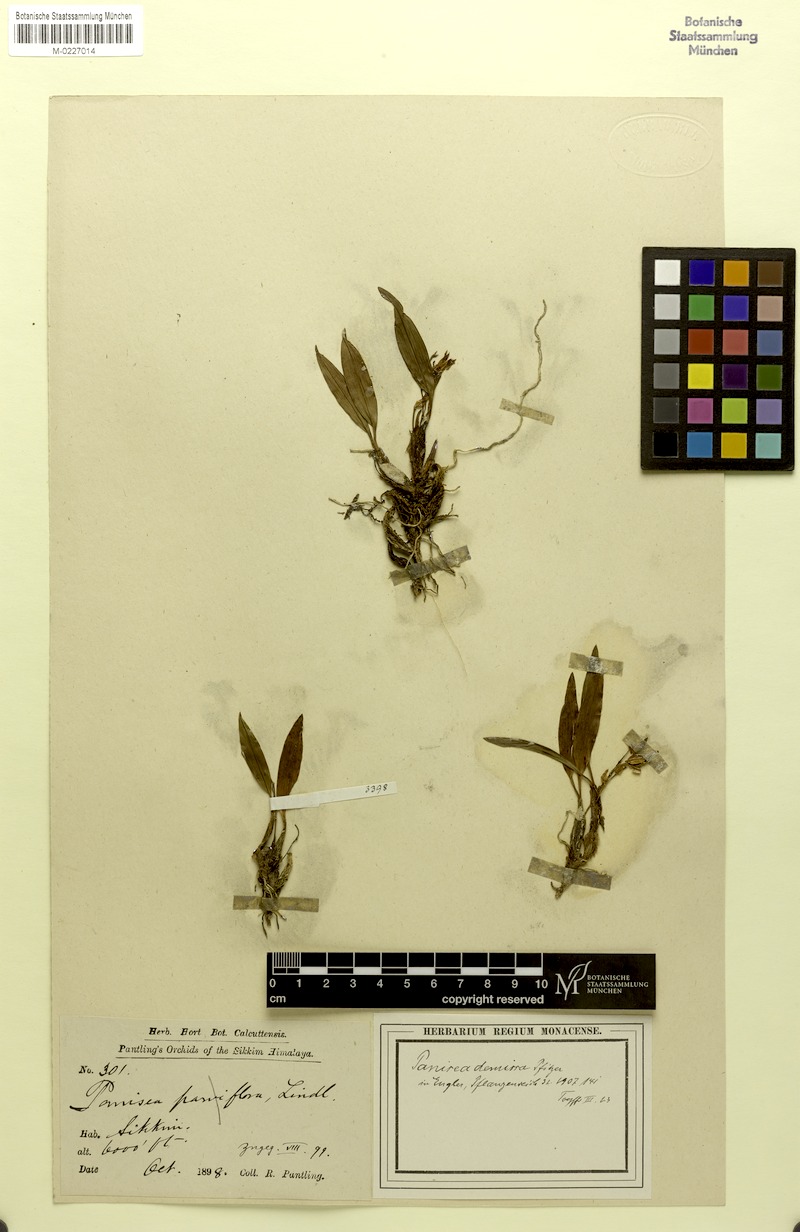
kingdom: Plantae
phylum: Tracheophyta
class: Liliopsida
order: Asparagales
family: Orchidaceae
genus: Coelogyne
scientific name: Coelogyne demissa
